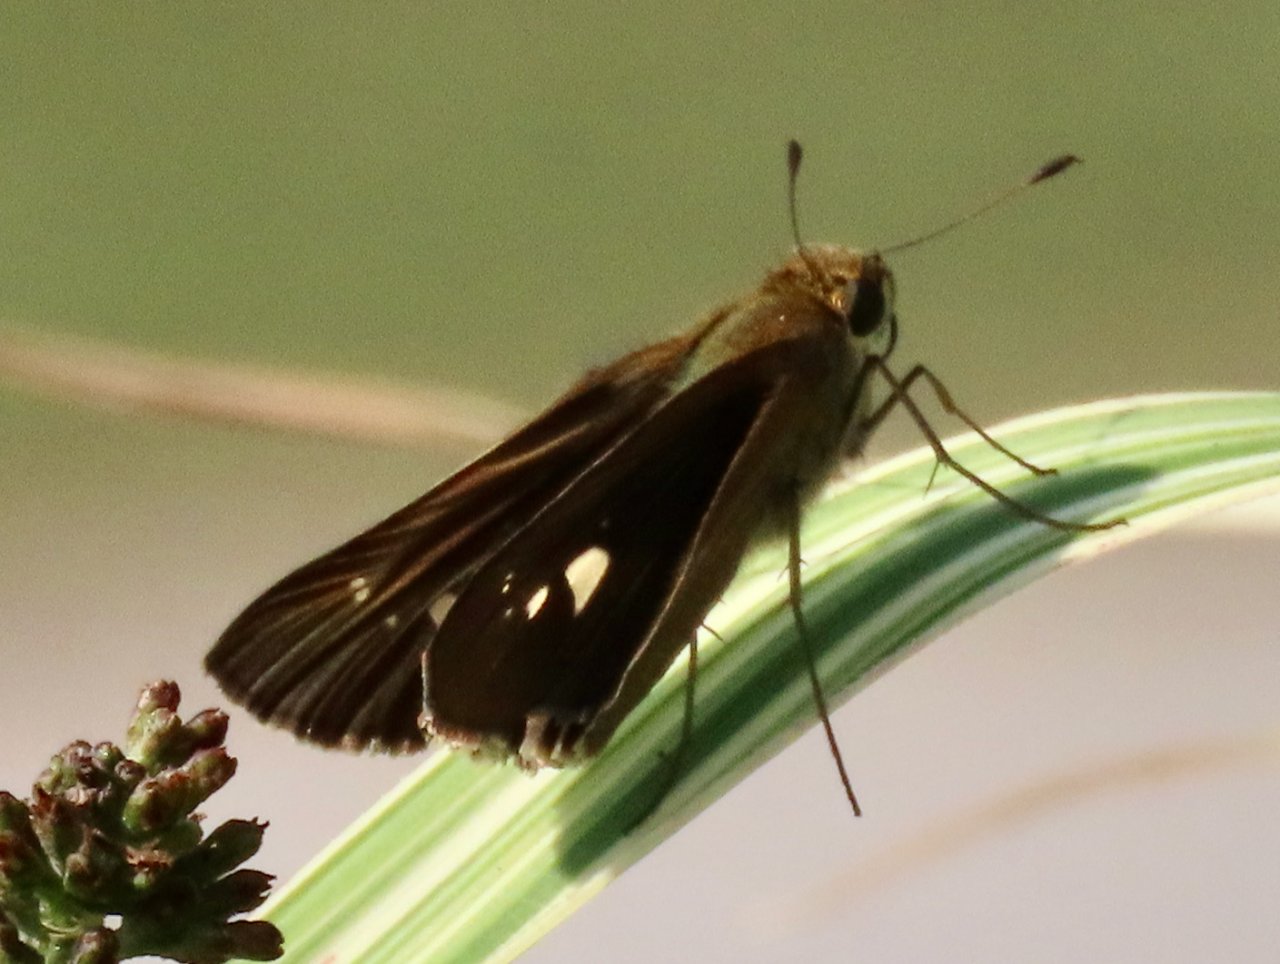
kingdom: Animalia
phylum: Arthropoda
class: Insecta
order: Lepidoptera
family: Hesperiidae
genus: Panoquina
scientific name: Panoquina ocola
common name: Ocola Skipper
